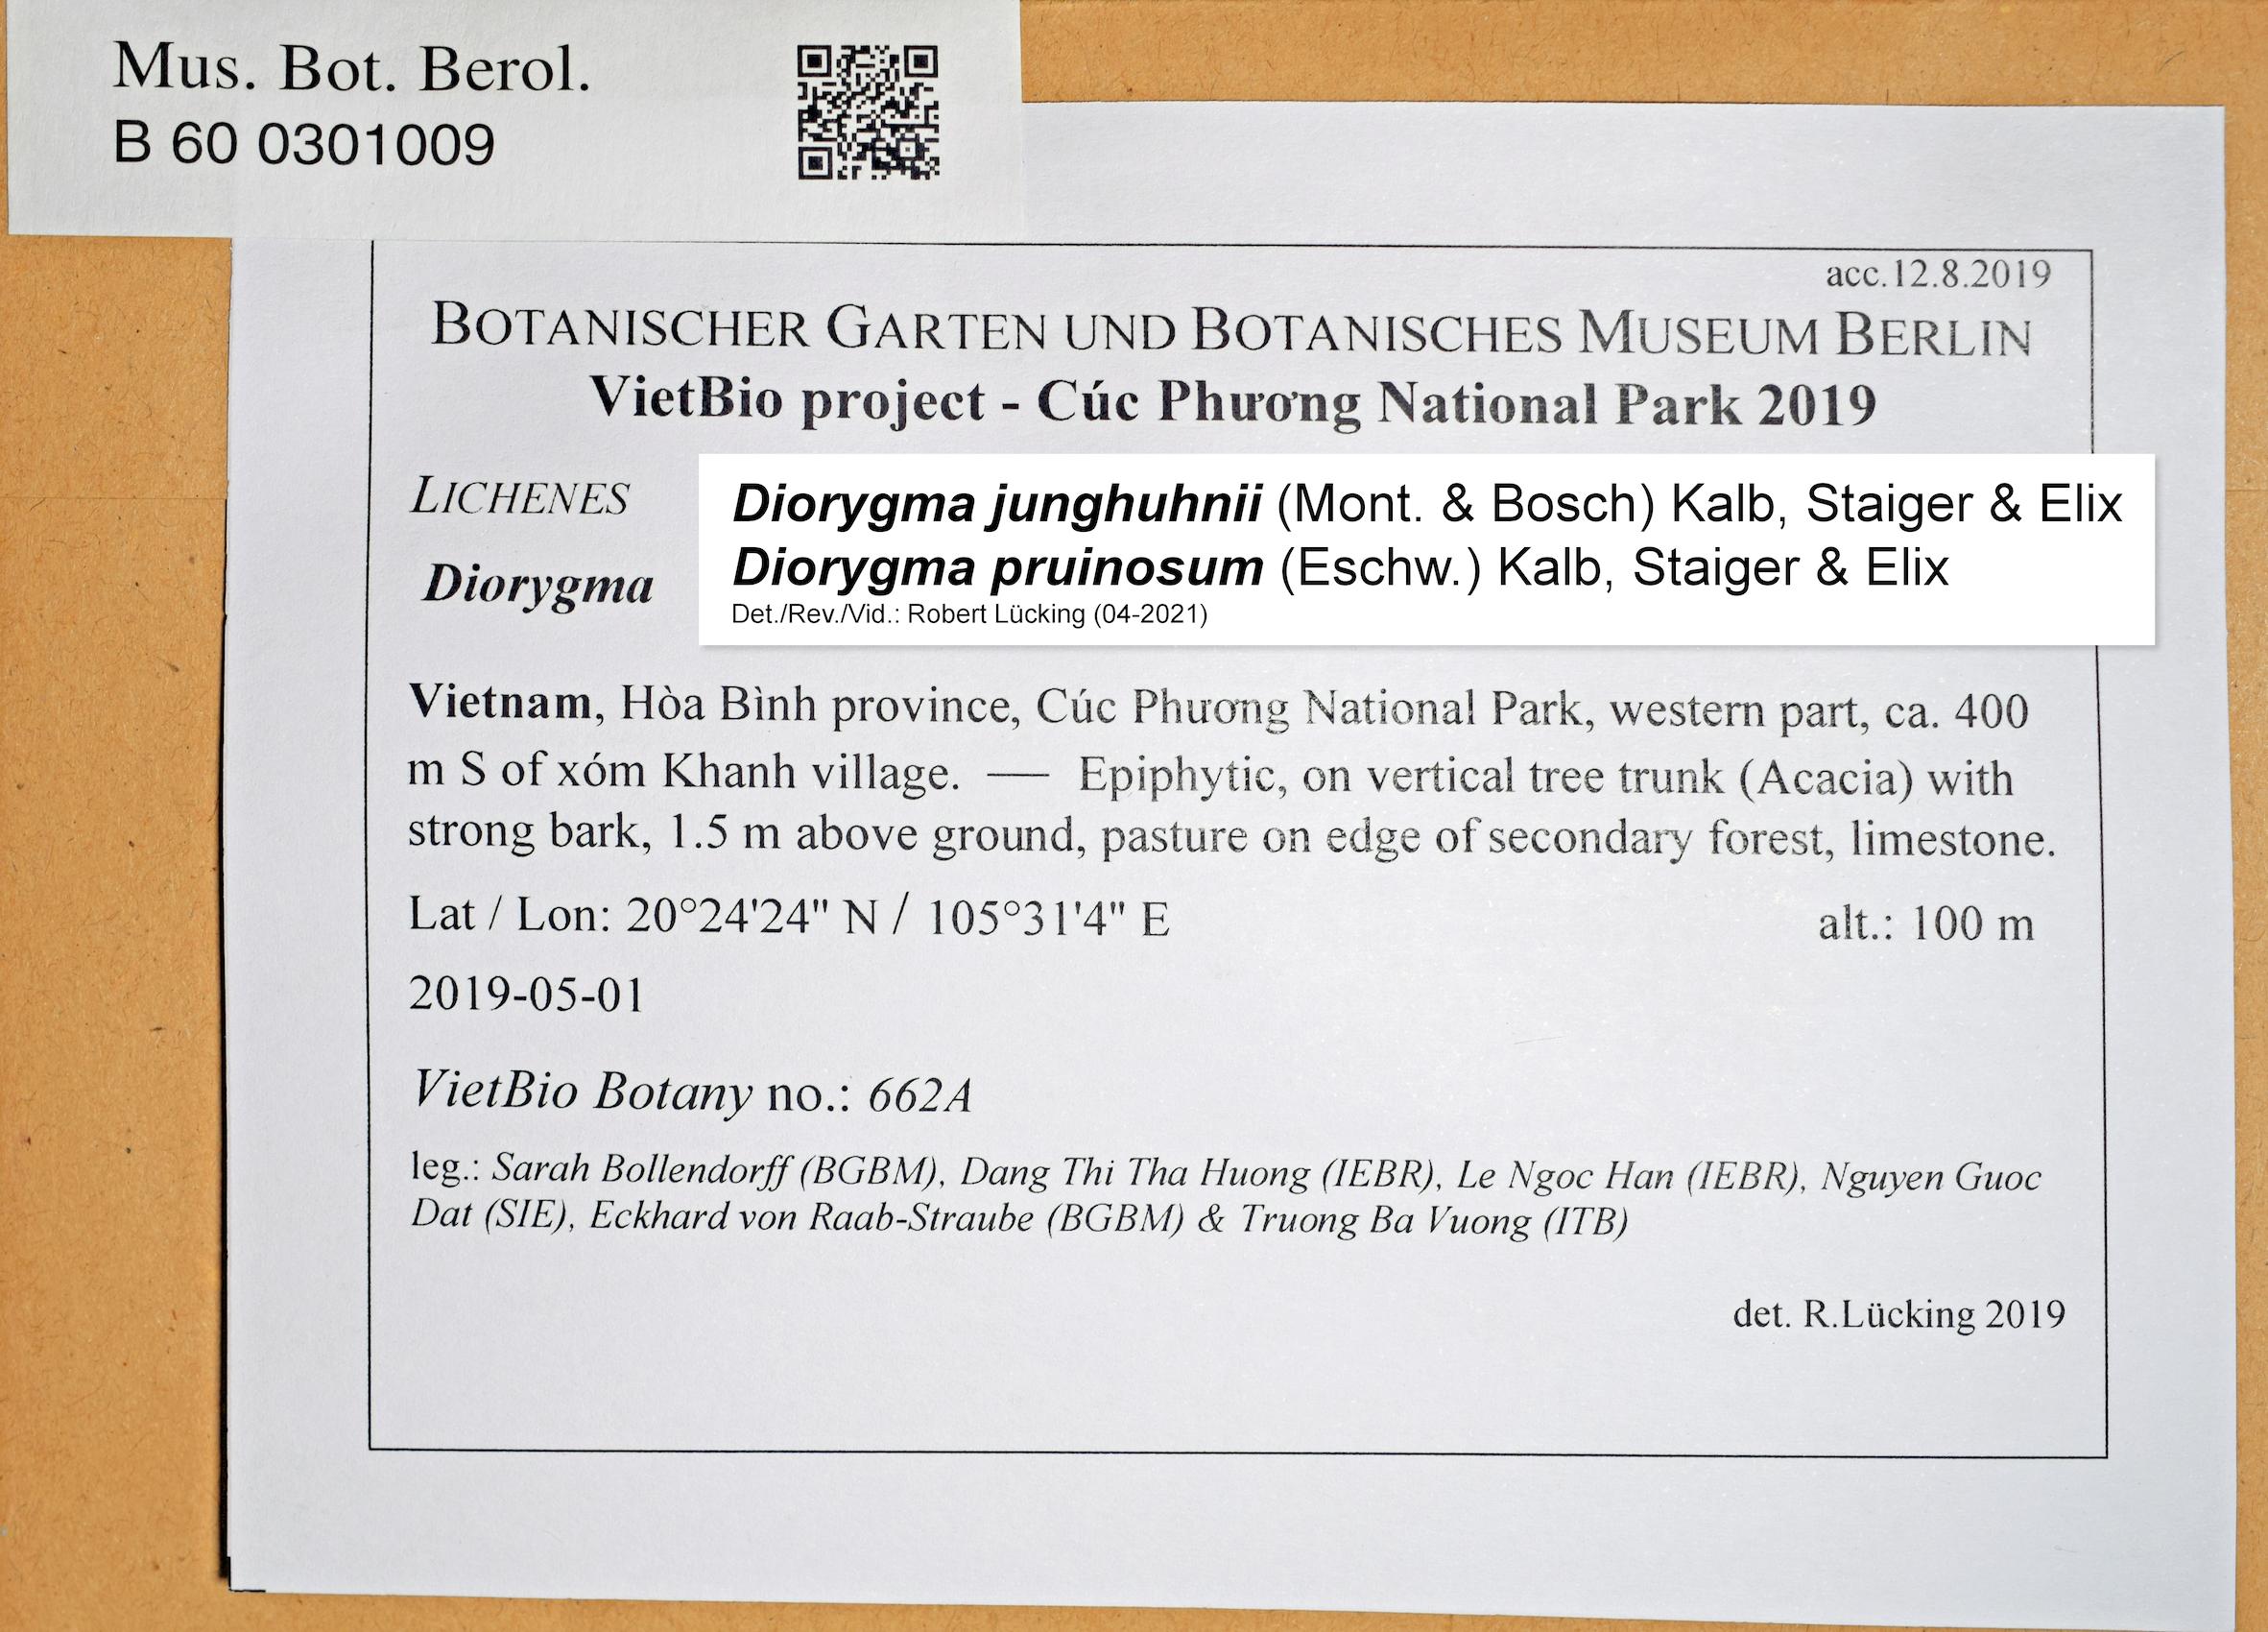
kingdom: Fungi
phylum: Ascomycota
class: Lecanoromycetes
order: Ostropales
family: Graphidaceae
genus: Diorygma
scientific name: Diorygma
